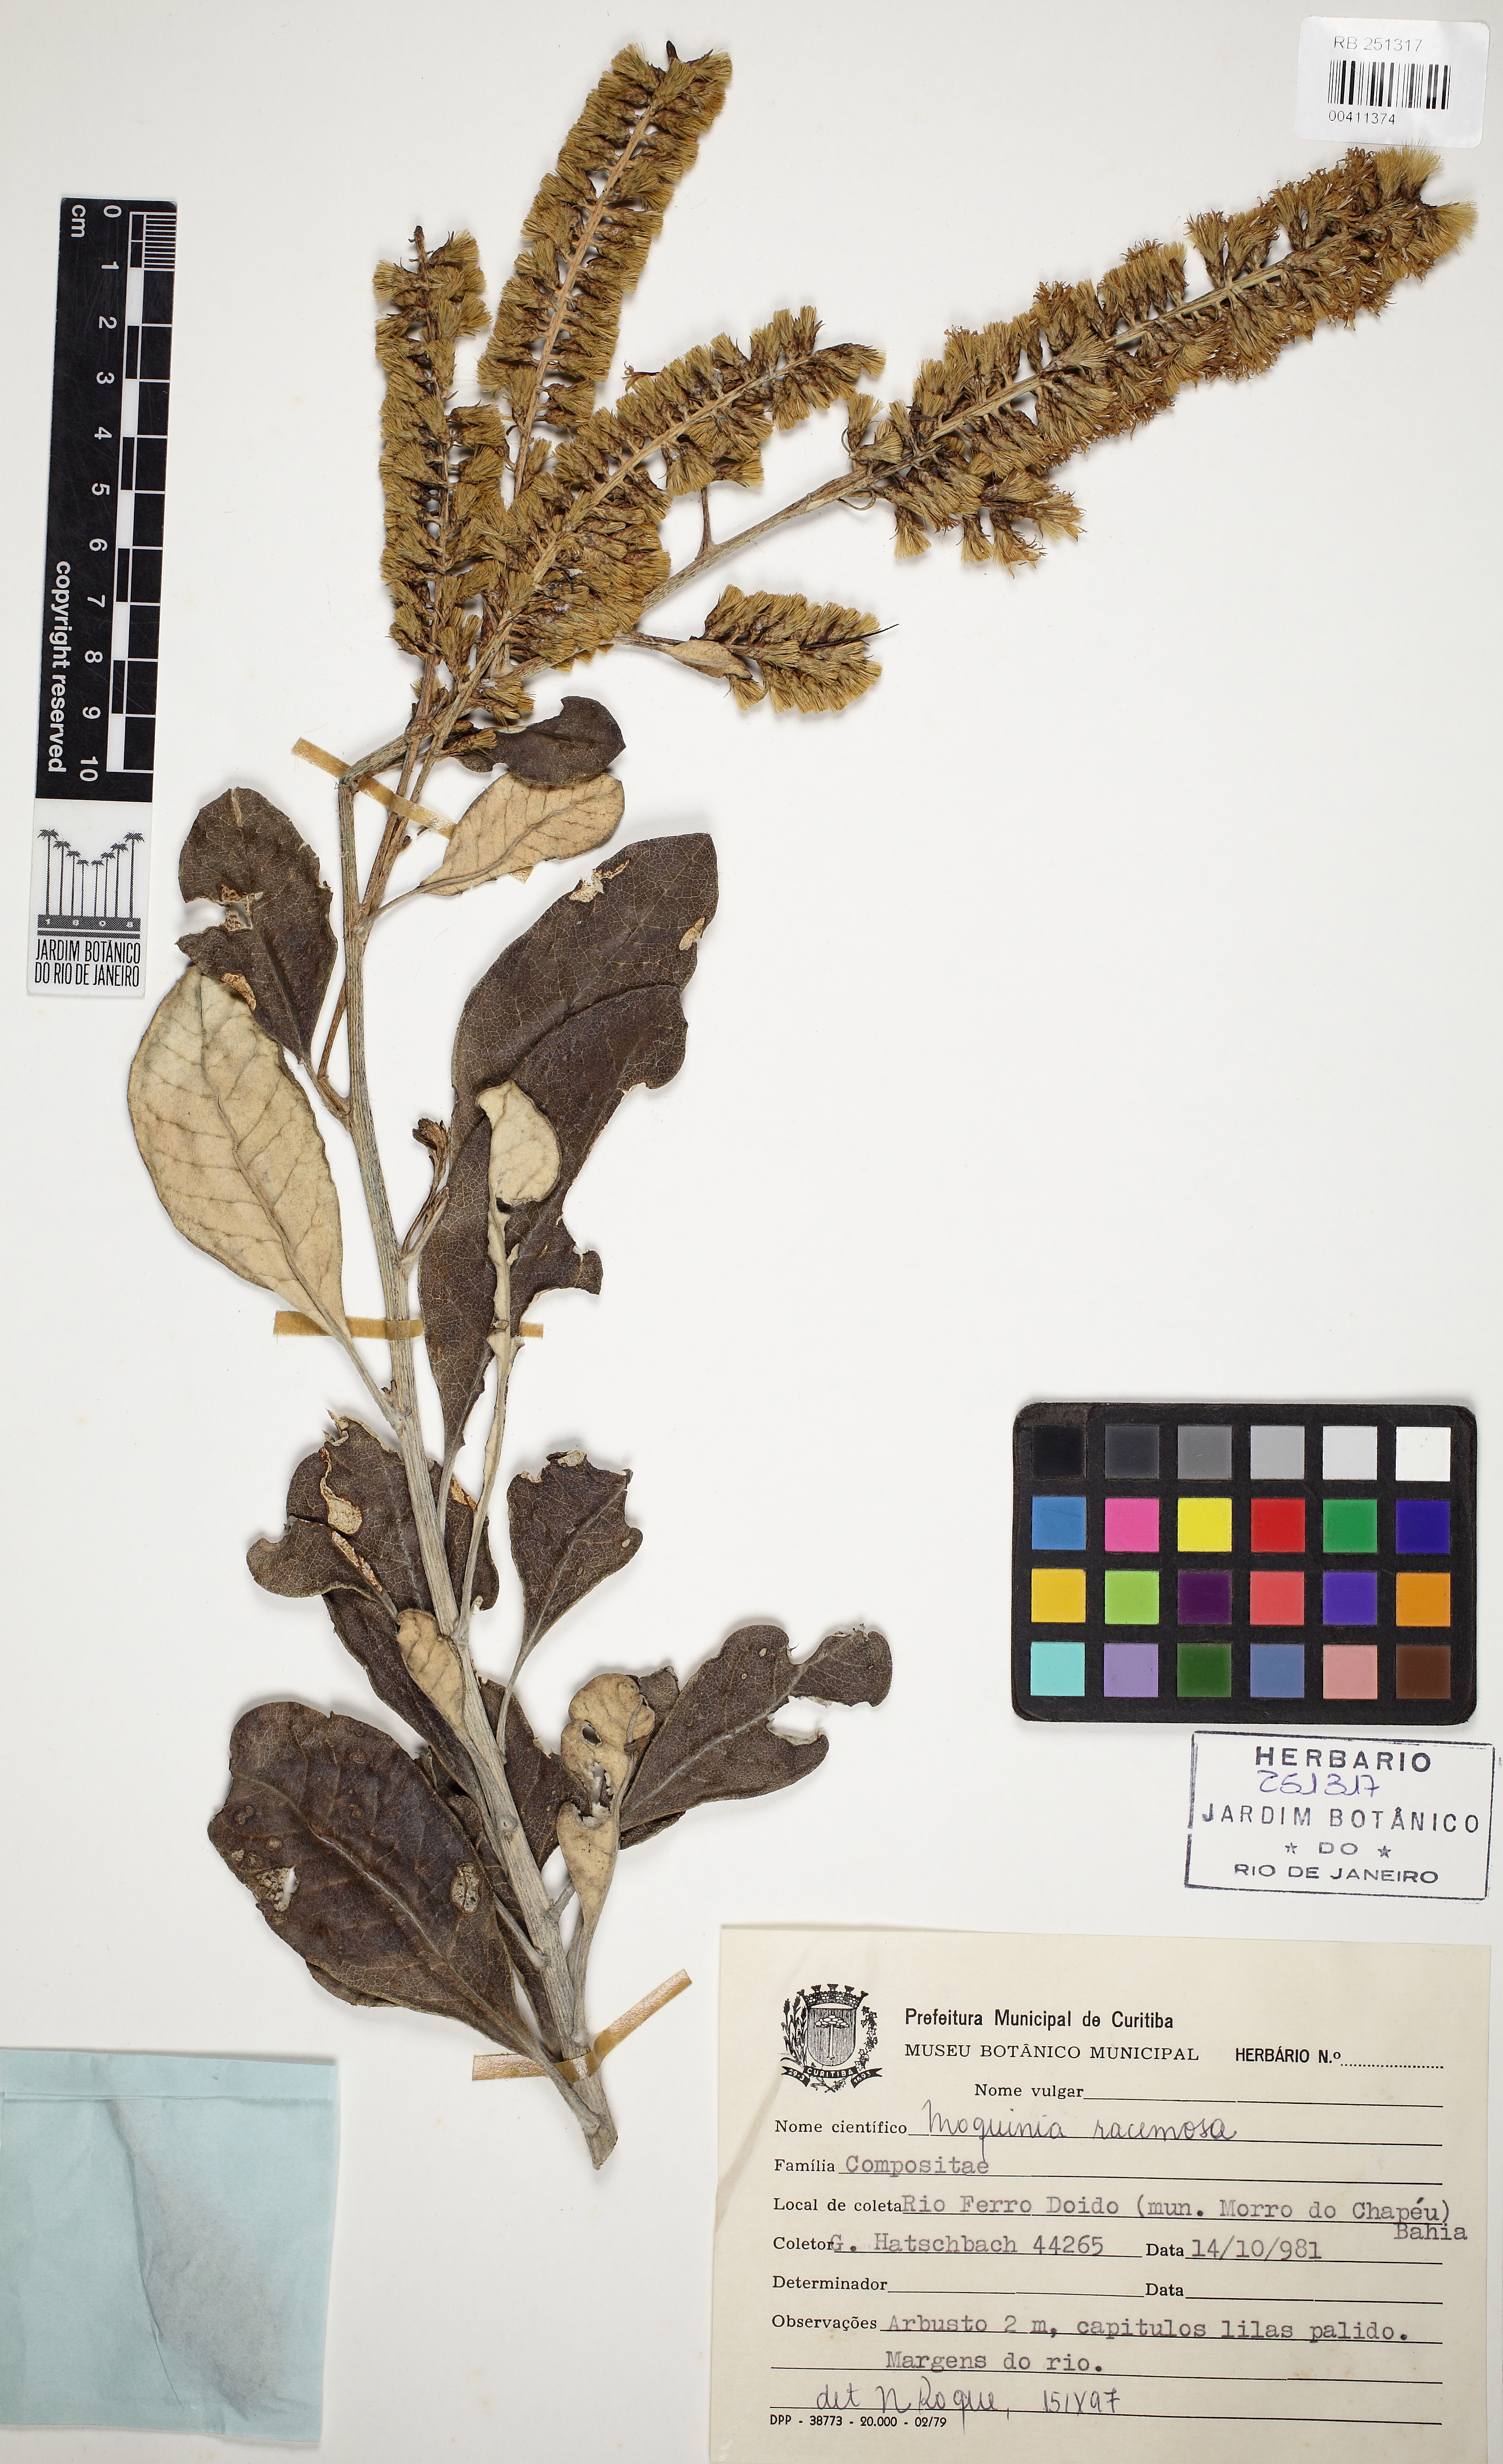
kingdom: Plantae
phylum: Tracheophyta
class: Magnoliopsida
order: Asterales
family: Asteraceae
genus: Moquinia
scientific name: Moquinia racemosa
